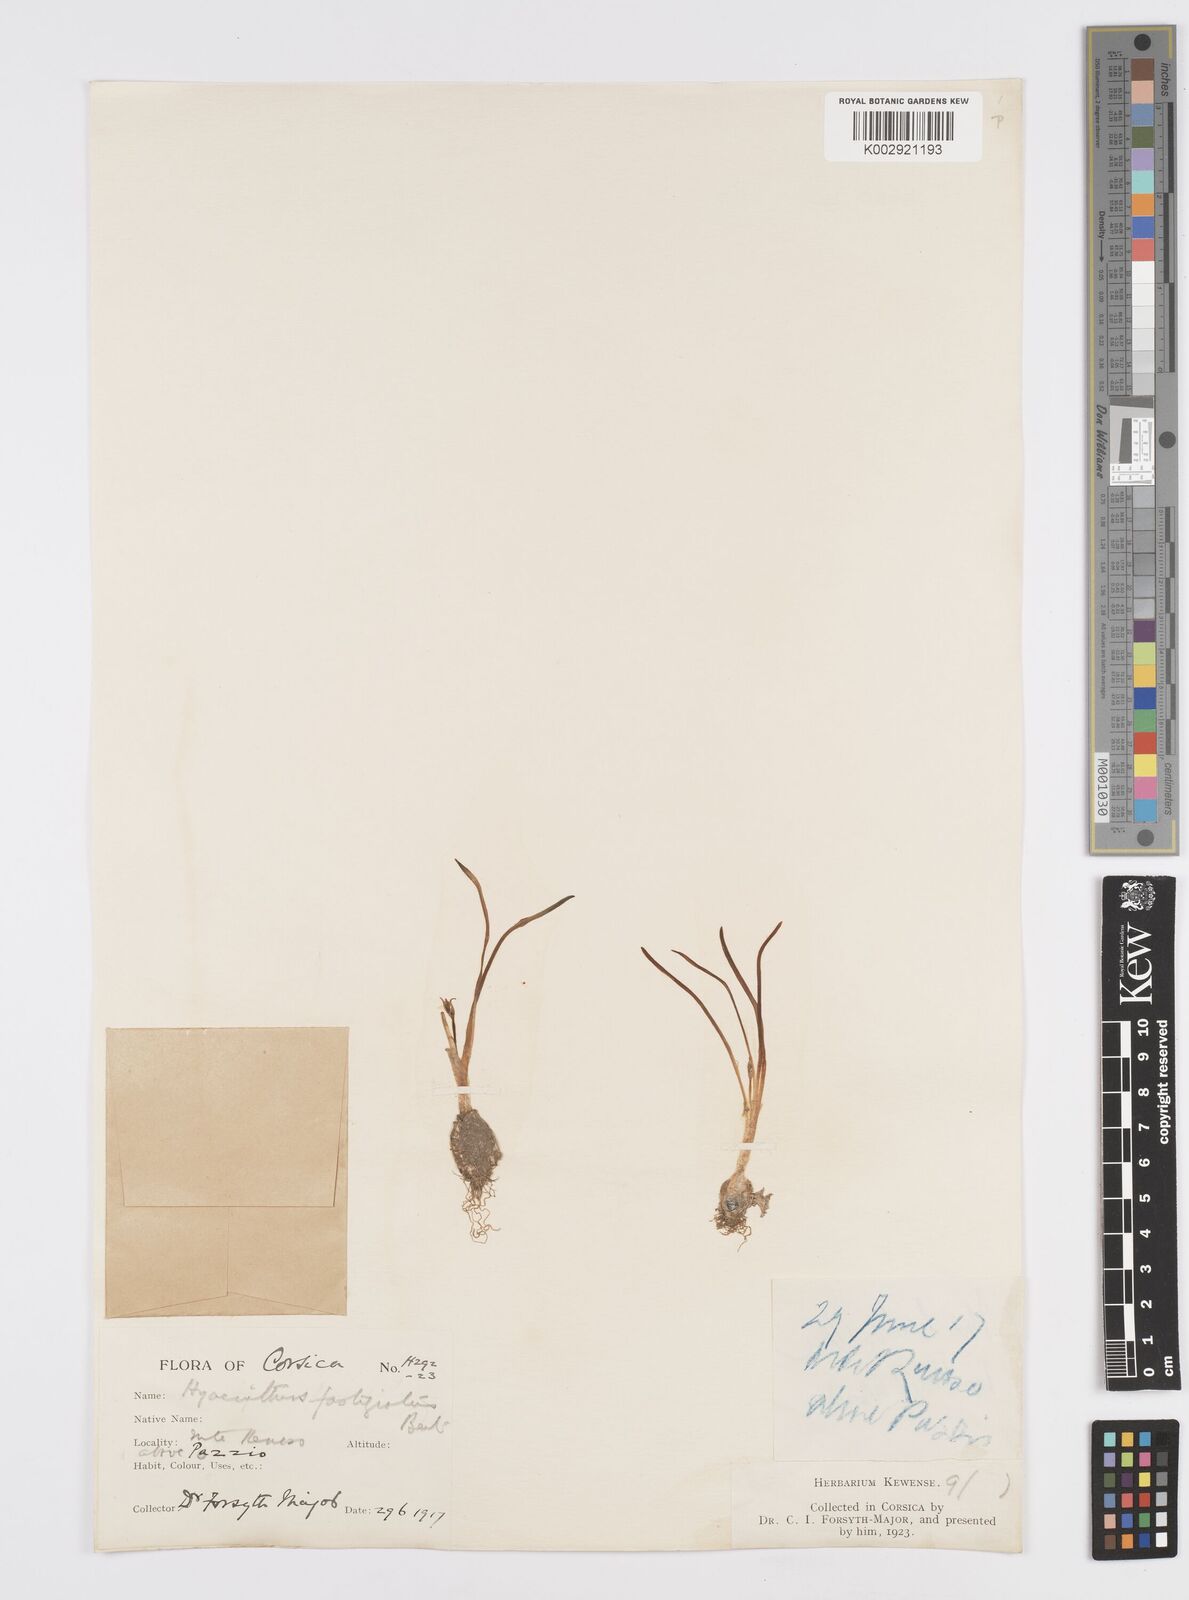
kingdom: Plantae
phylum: Tracheophyta
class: Liliopsida
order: Asparagales
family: Asparagaceae
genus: Brimeura
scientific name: Brimeura fastigiata
